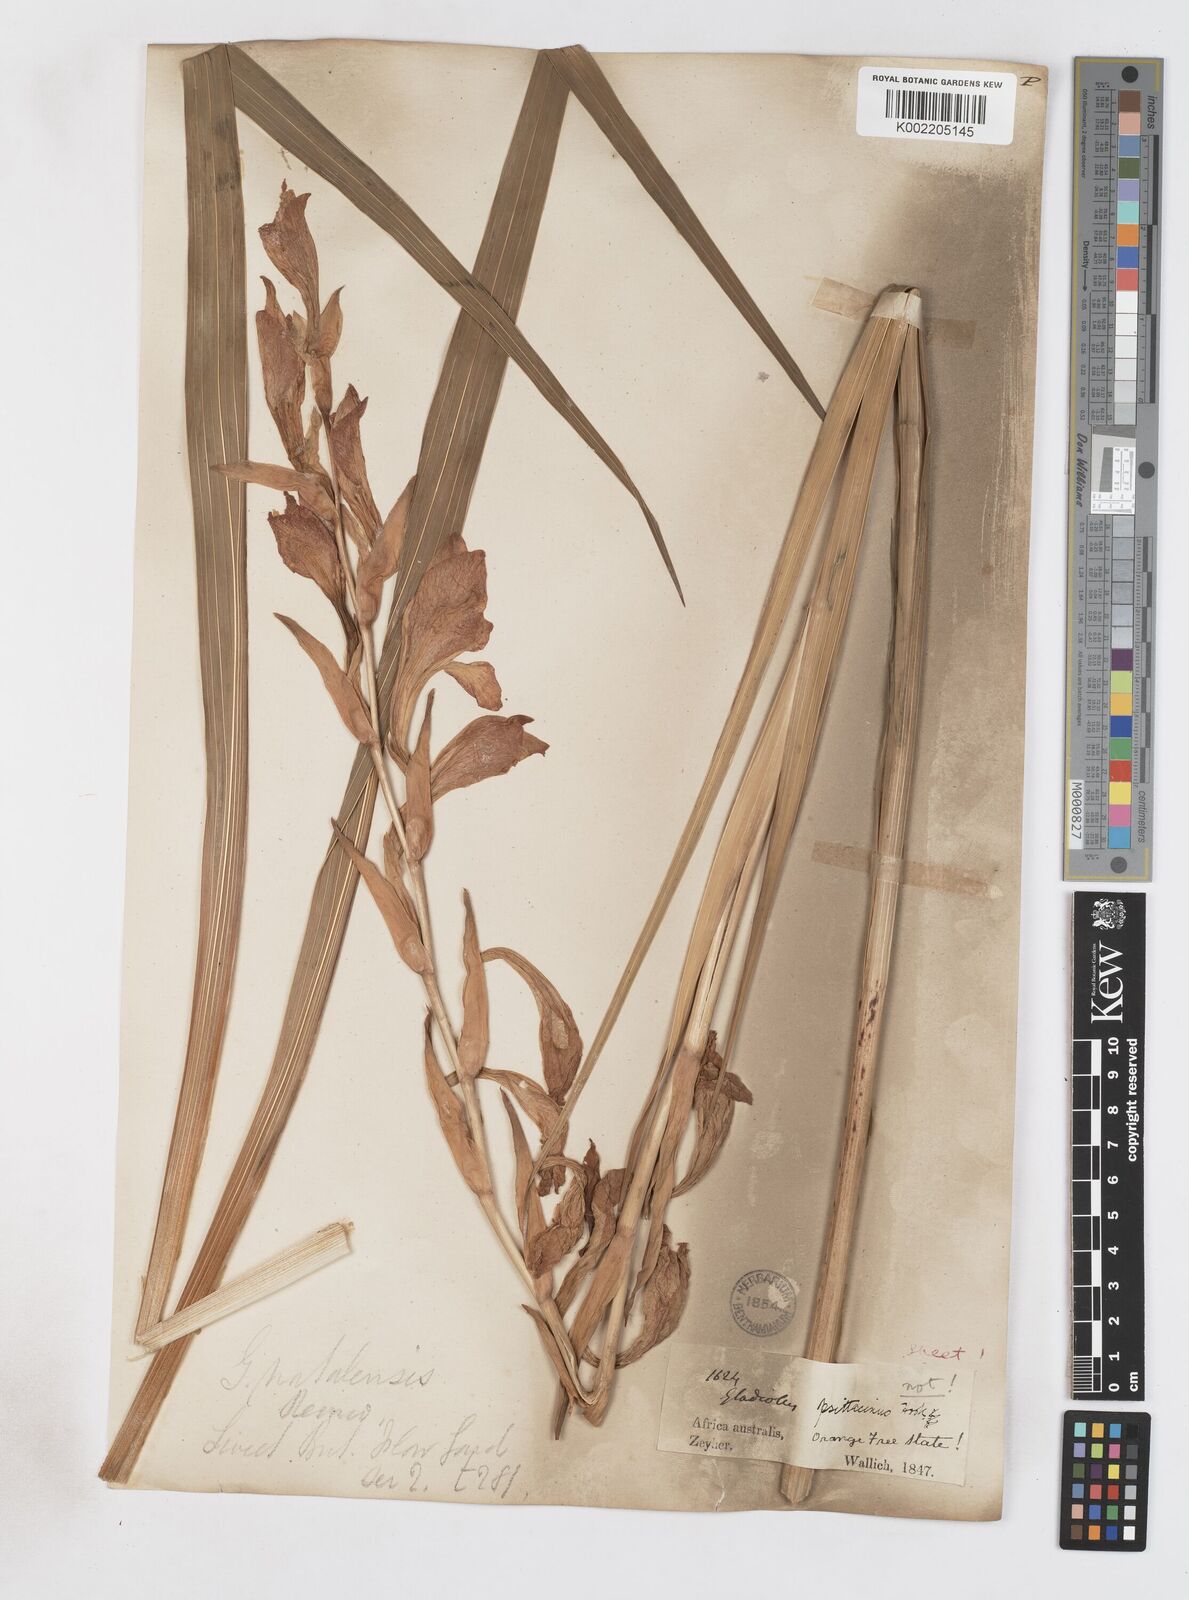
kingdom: Plantae
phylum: Tracheophyta
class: Liliopsida
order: Asparagales
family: Iridaceae
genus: Gladiolus
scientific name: Gladiolus dalenii
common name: Cornflag
